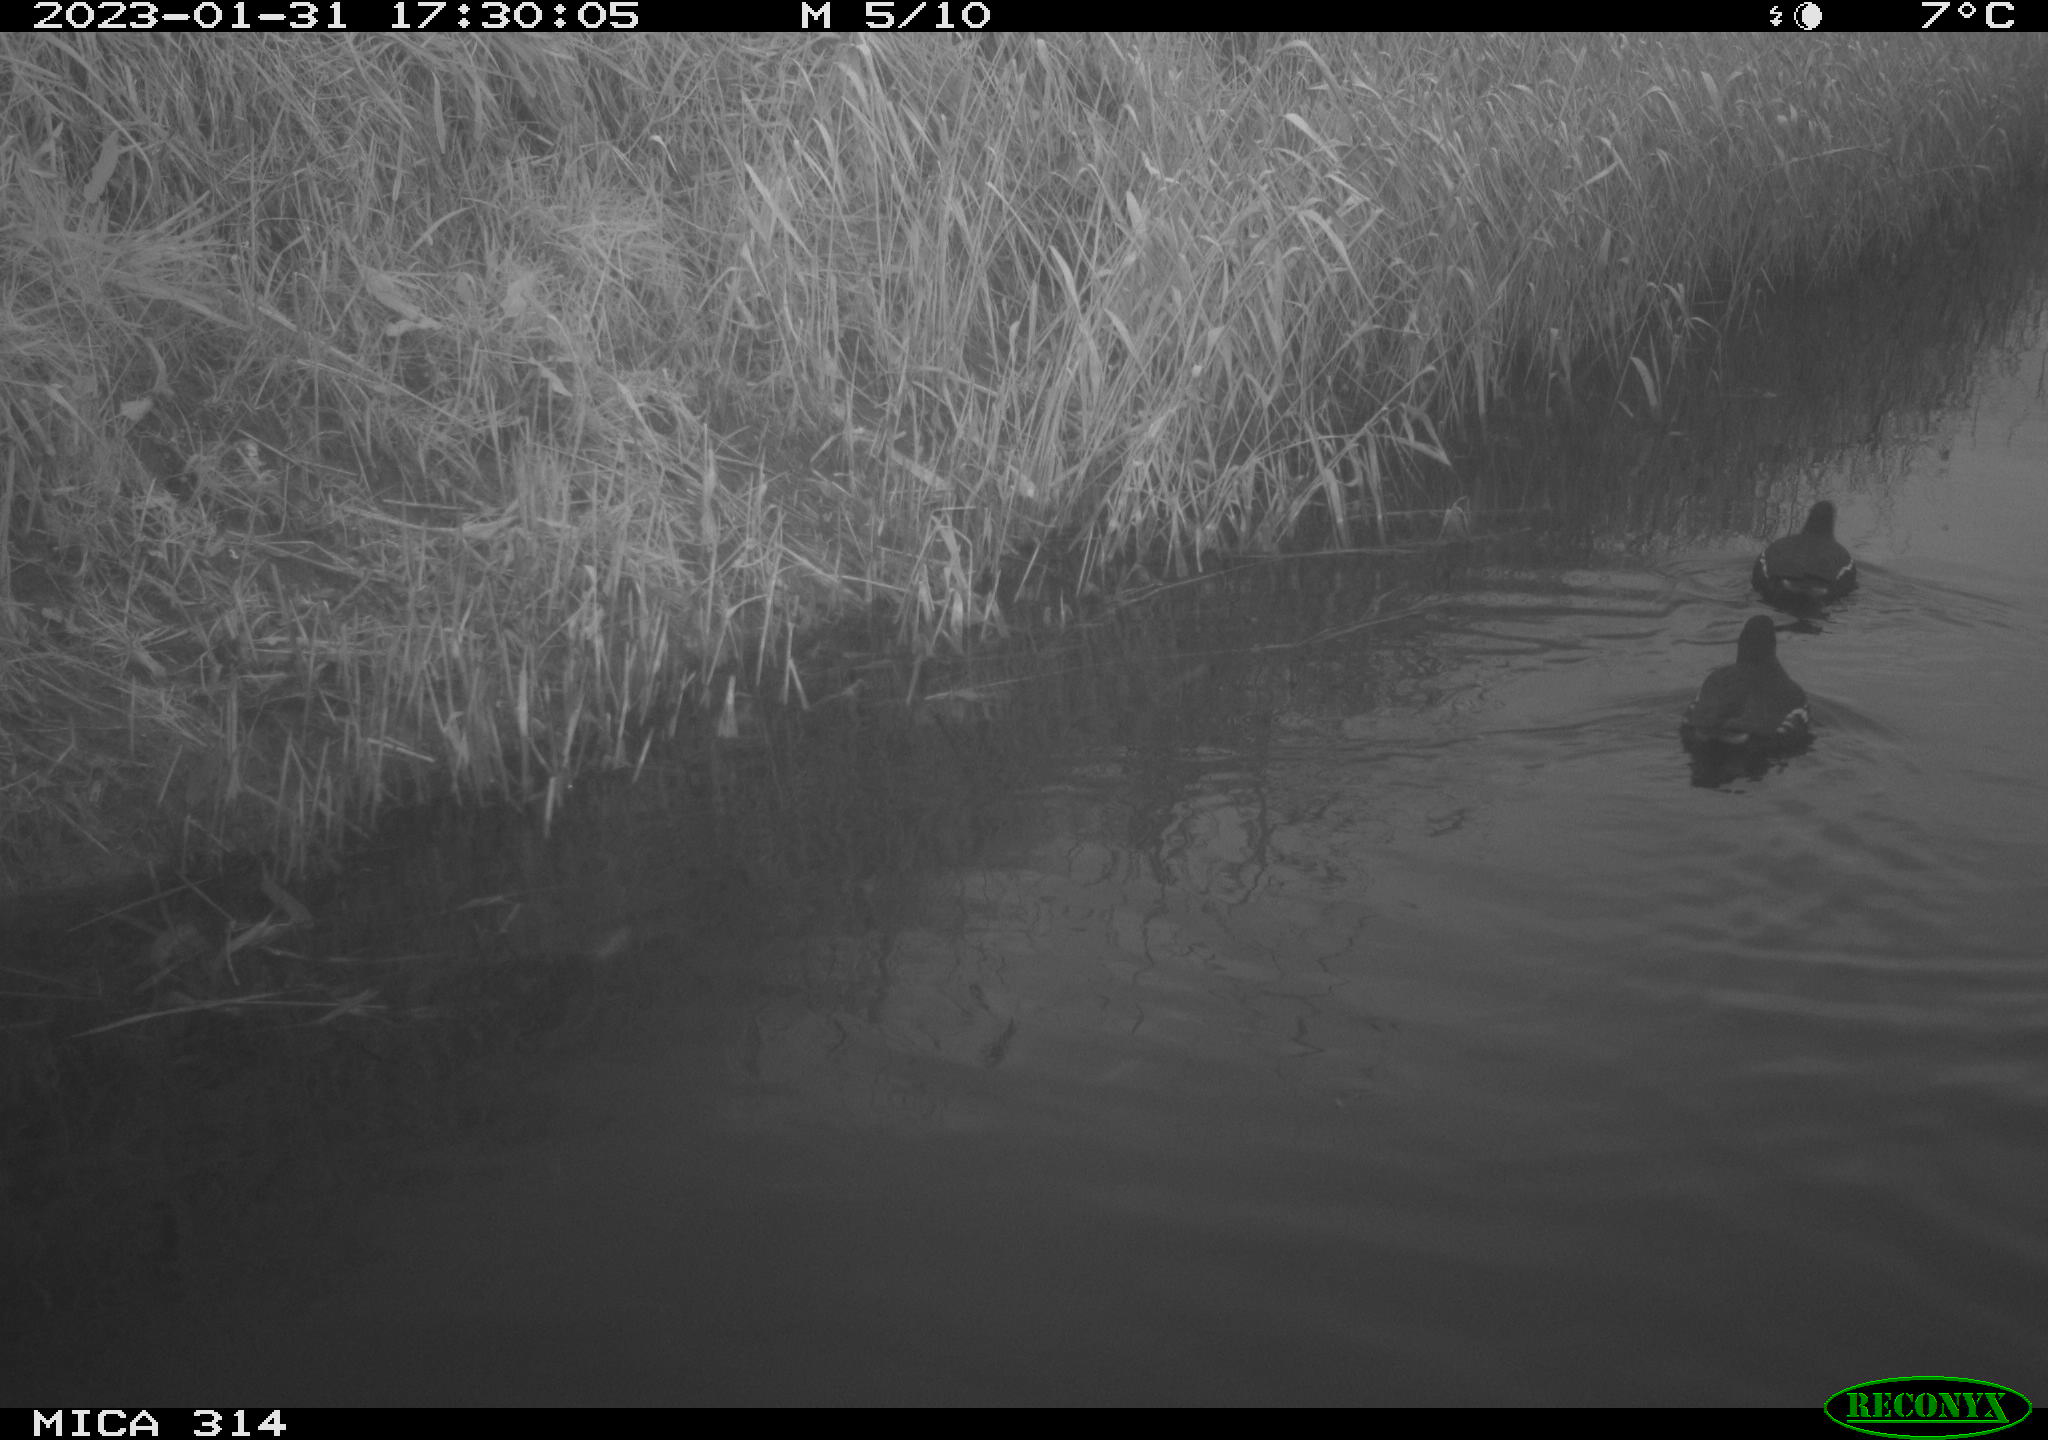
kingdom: Animalia
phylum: Chordata
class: Aves
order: Gruiformes
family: Rallidae
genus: Gallinula
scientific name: Gallinula chloropus
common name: Common moorhen
